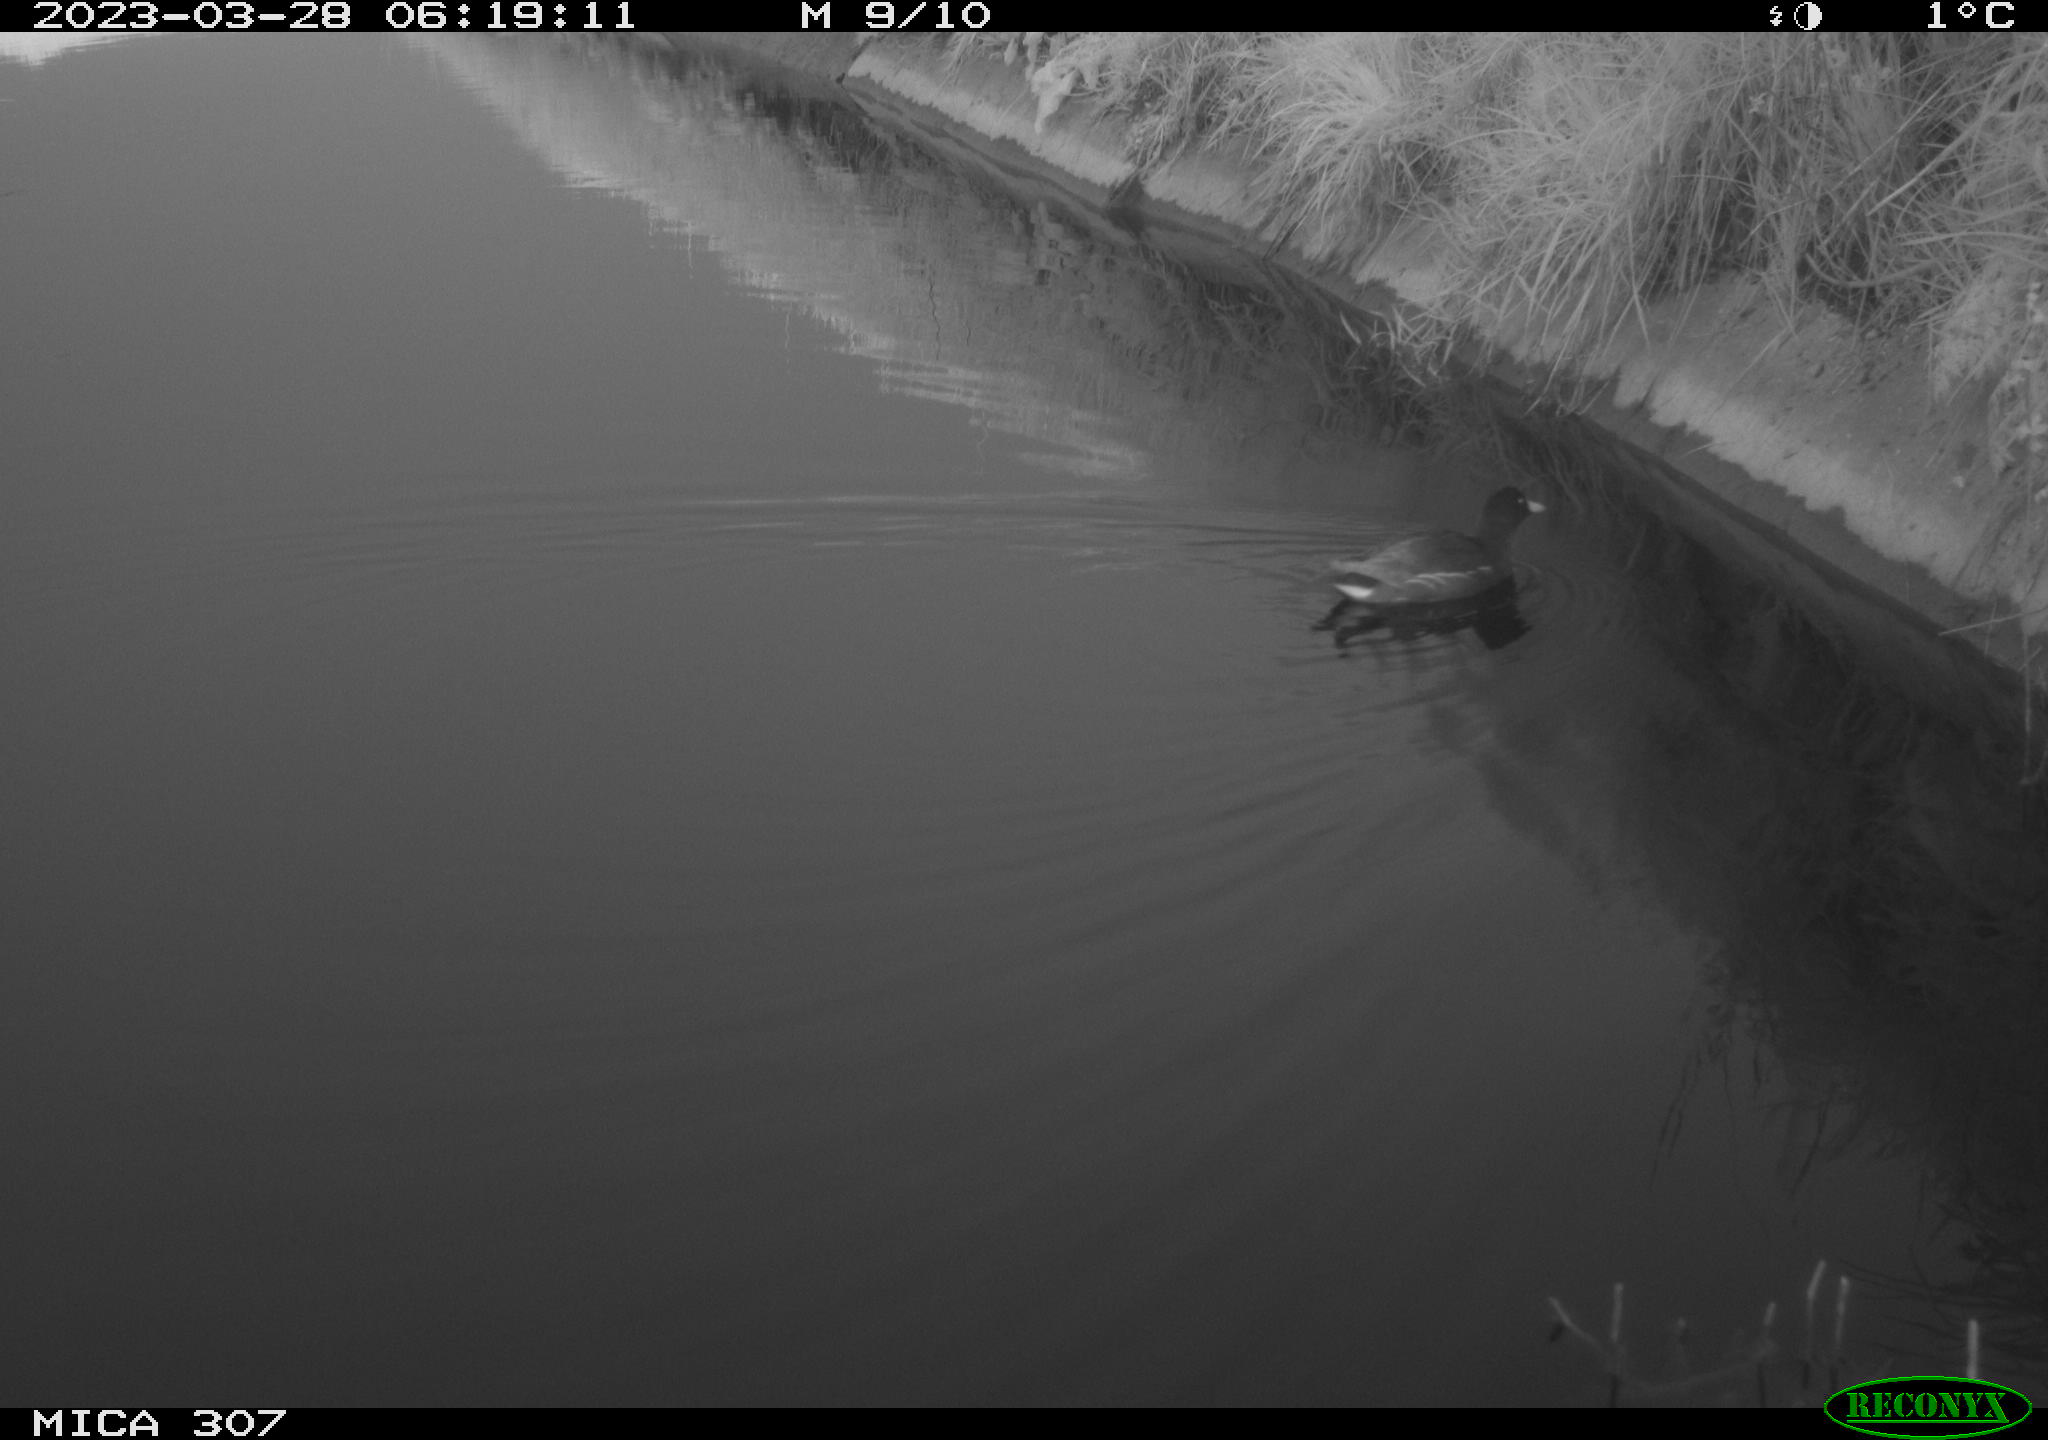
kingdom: Animalia
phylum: Chordata
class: Aves
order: Gruiformes
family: Rallidae
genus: Gallinula
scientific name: Gallinula chloropus
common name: Common moorhen
